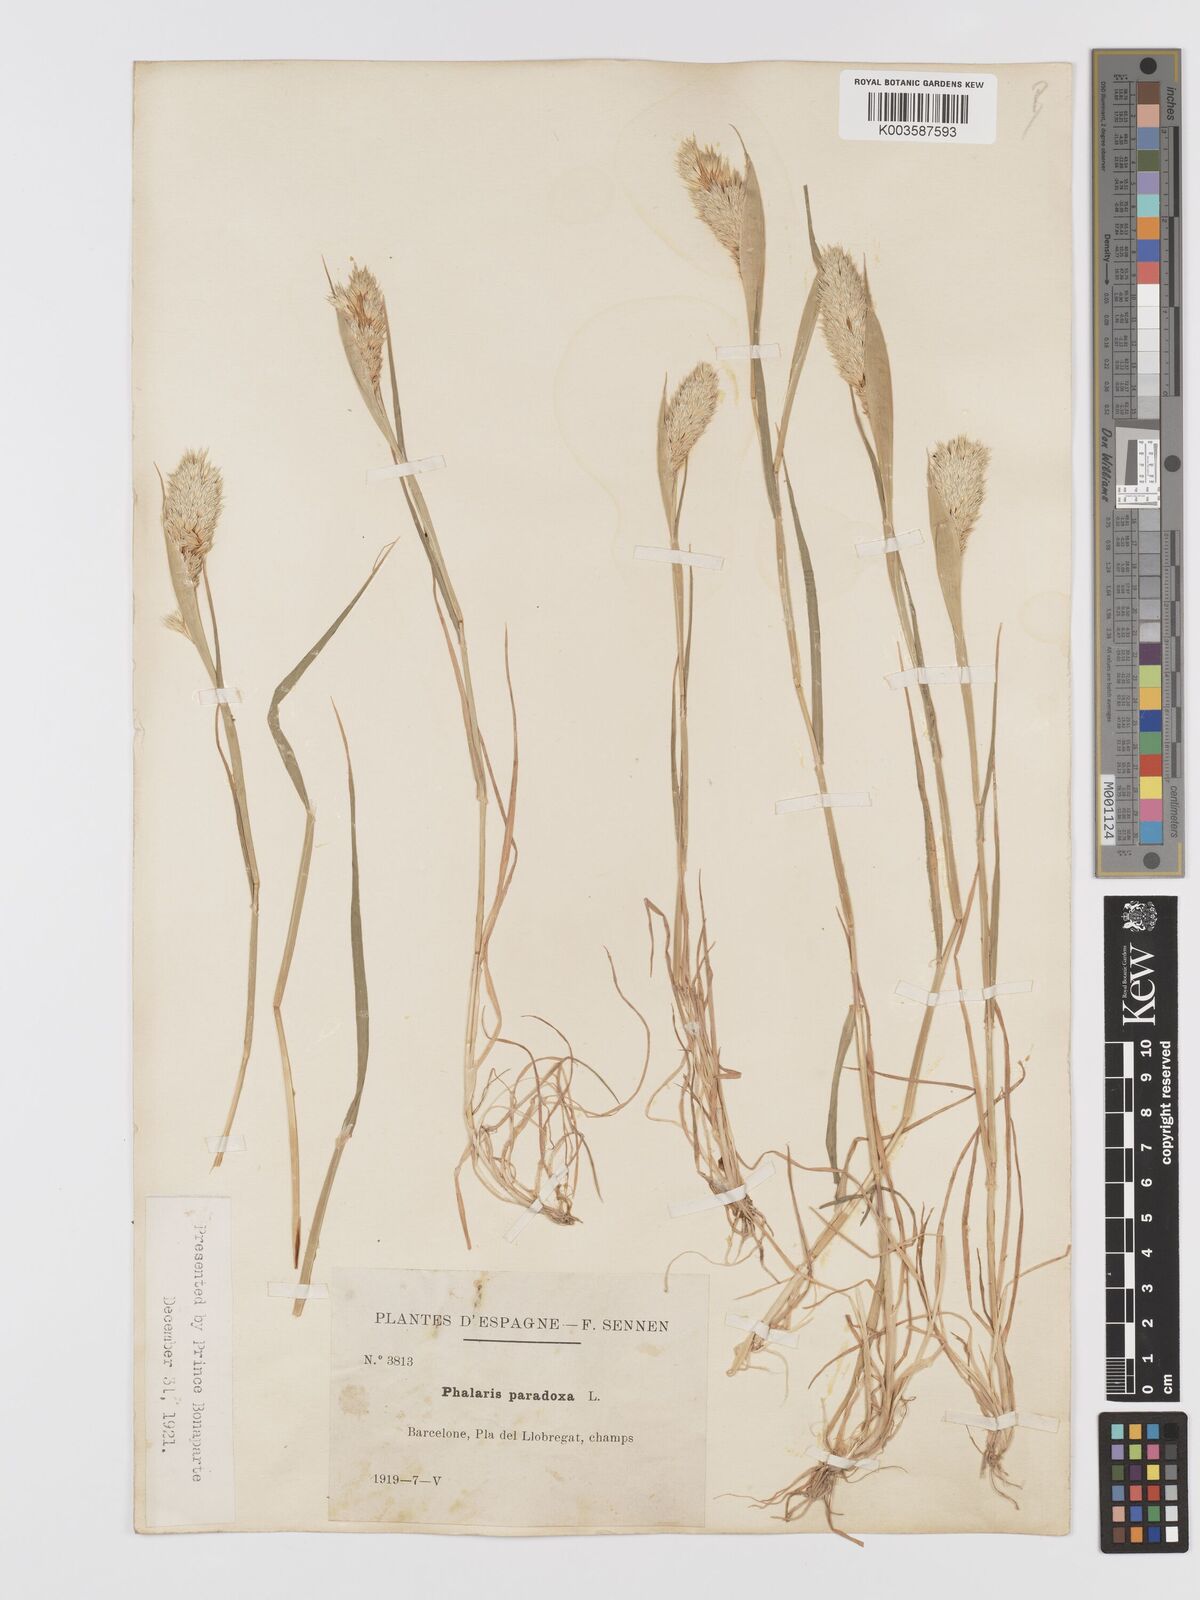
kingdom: Plantae
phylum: Tracheophyta
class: Liliopsida
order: Poales
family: Poaceae
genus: Phalaris
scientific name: Phalaris paradoxa
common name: Awned canary-grass
